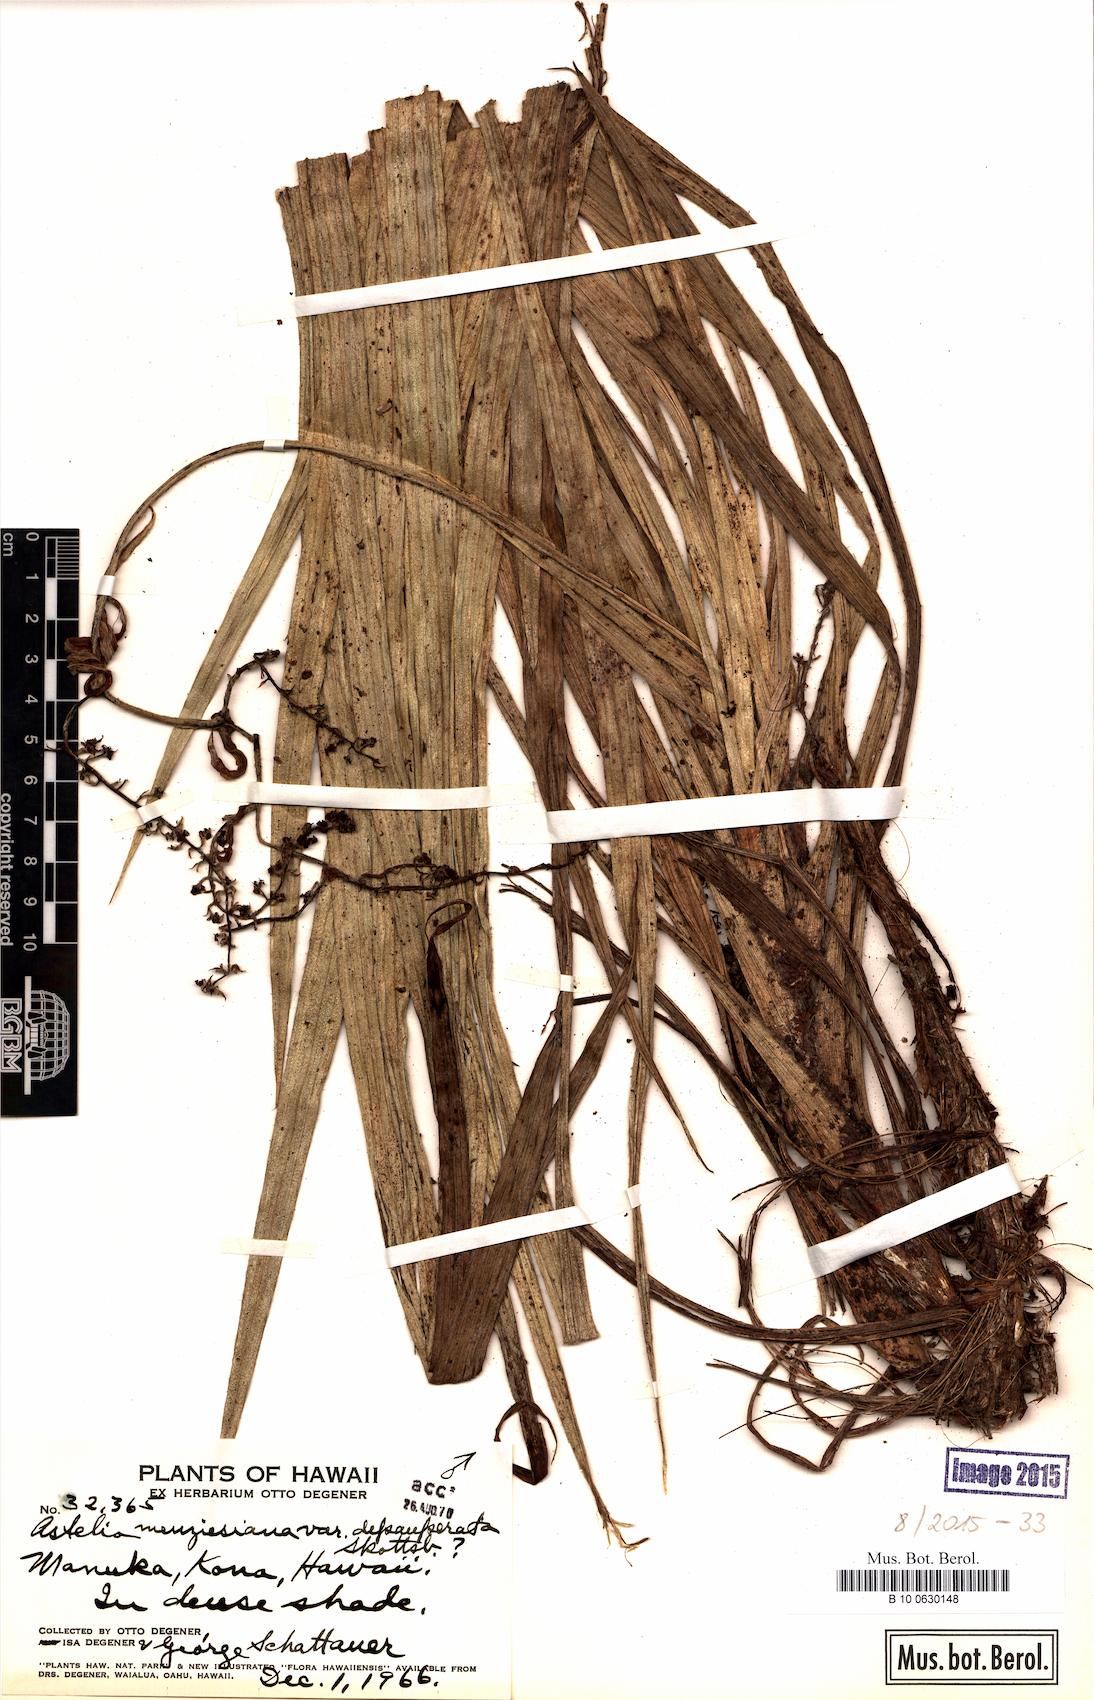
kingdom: Plantae
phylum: Tracheophyta
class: Liliopsida
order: Asparagales
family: Asteliaceae
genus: Astelia
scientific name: Astelia menziesiana
